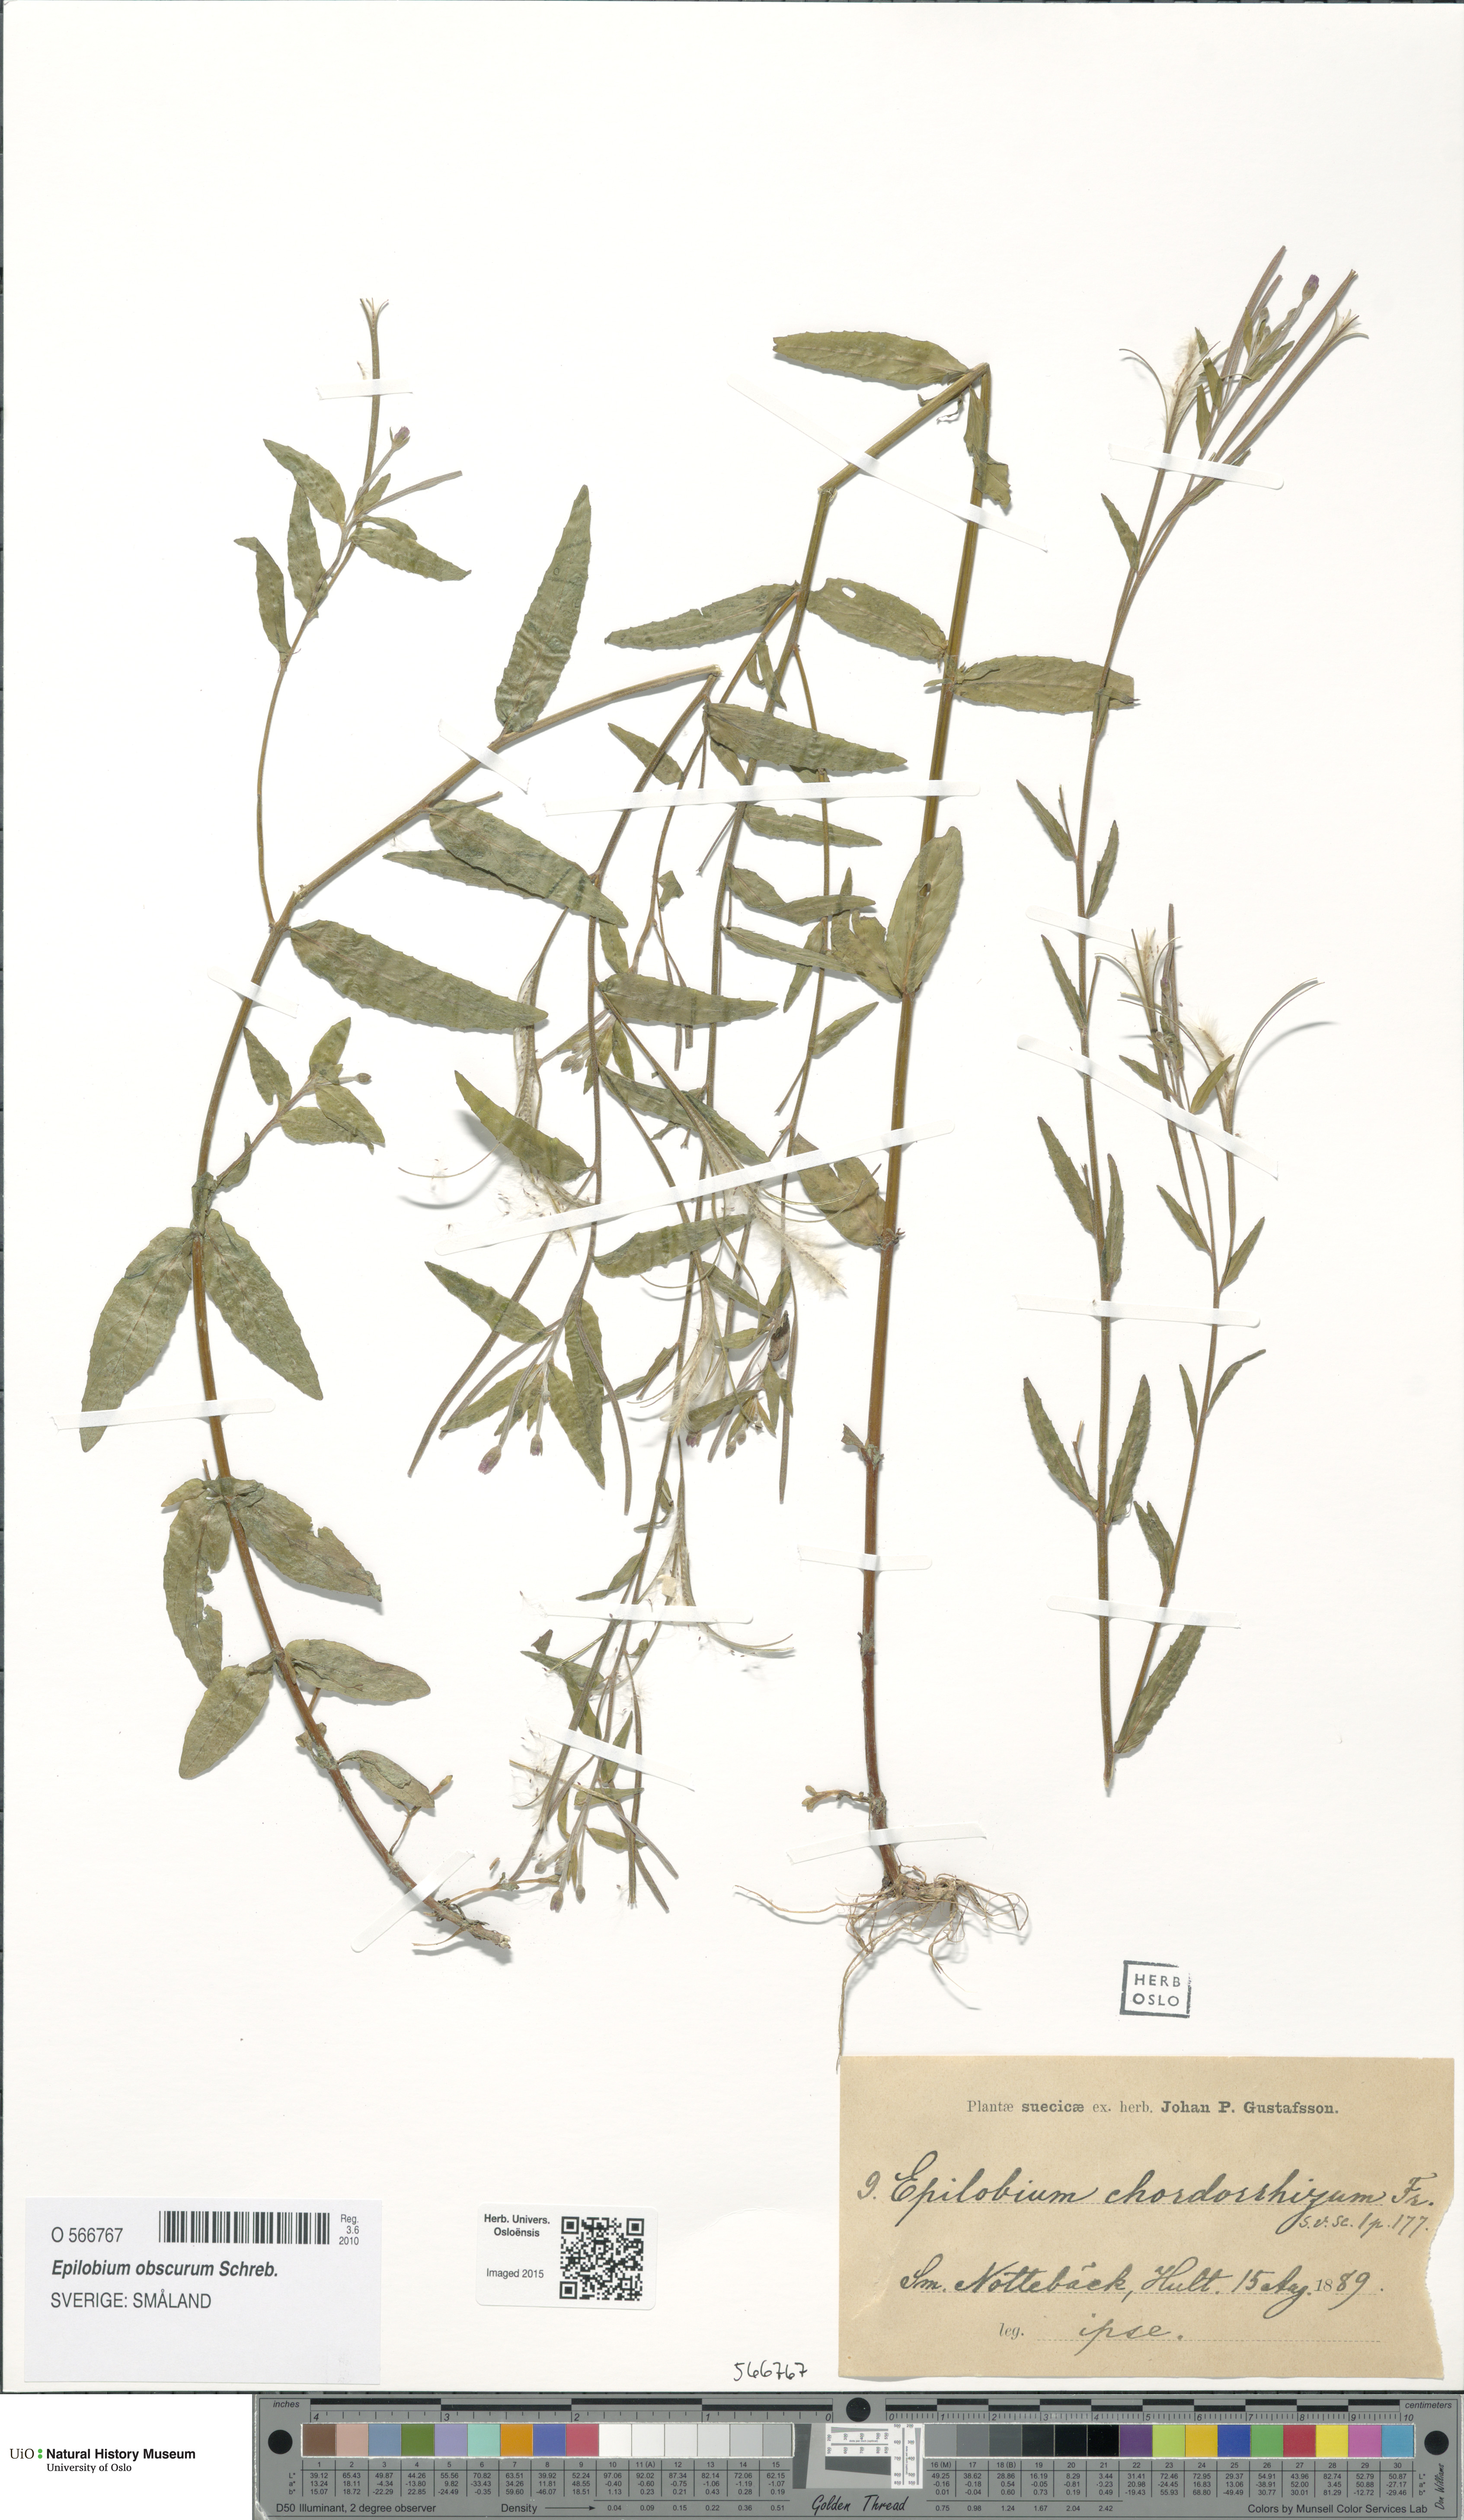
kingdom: Plantae
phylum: Tracheophyta
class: Magnoliopsida
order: Myrtales
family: Onagraceae
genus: Epilobium
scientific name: Epilobium obscurum
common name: Short-fruited willowherb
